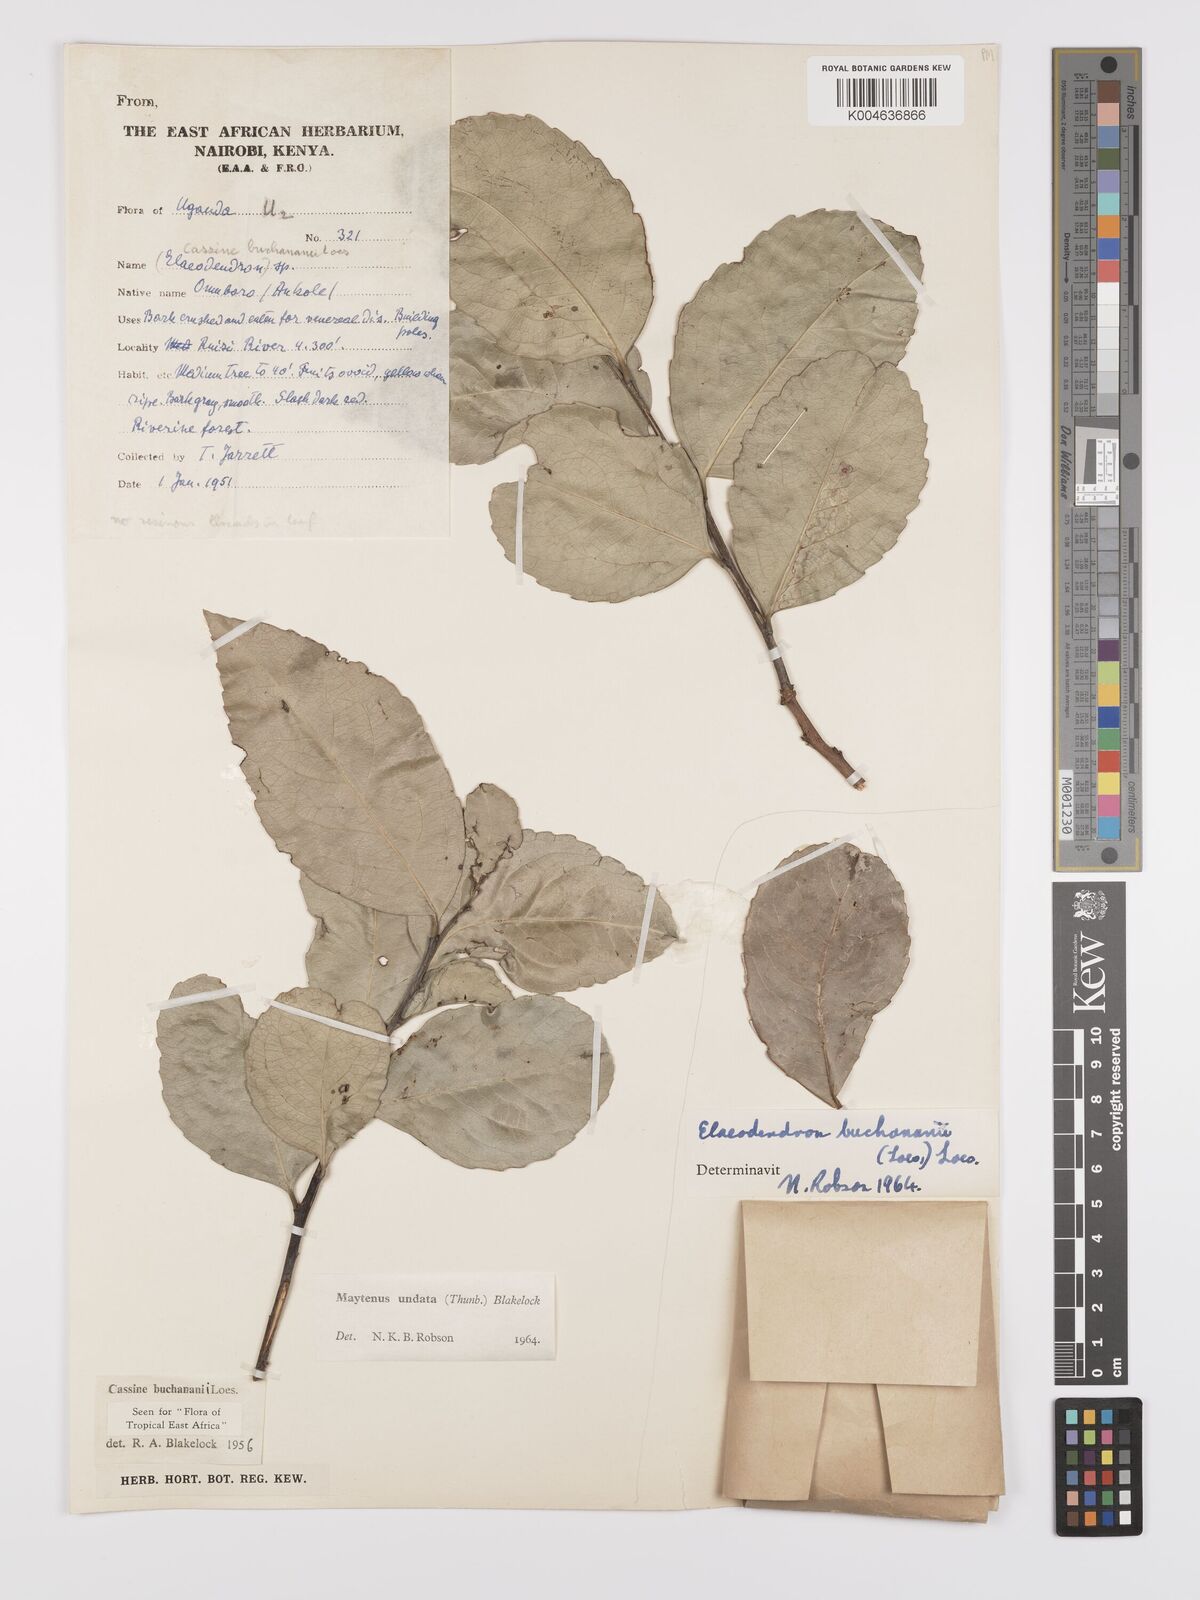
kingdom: Plantae
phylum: Tracheophyta
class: Magnoliopsida
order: Celastrales
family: Celastraceae
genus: Gymnosporia
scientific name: Gymnosporia undata
